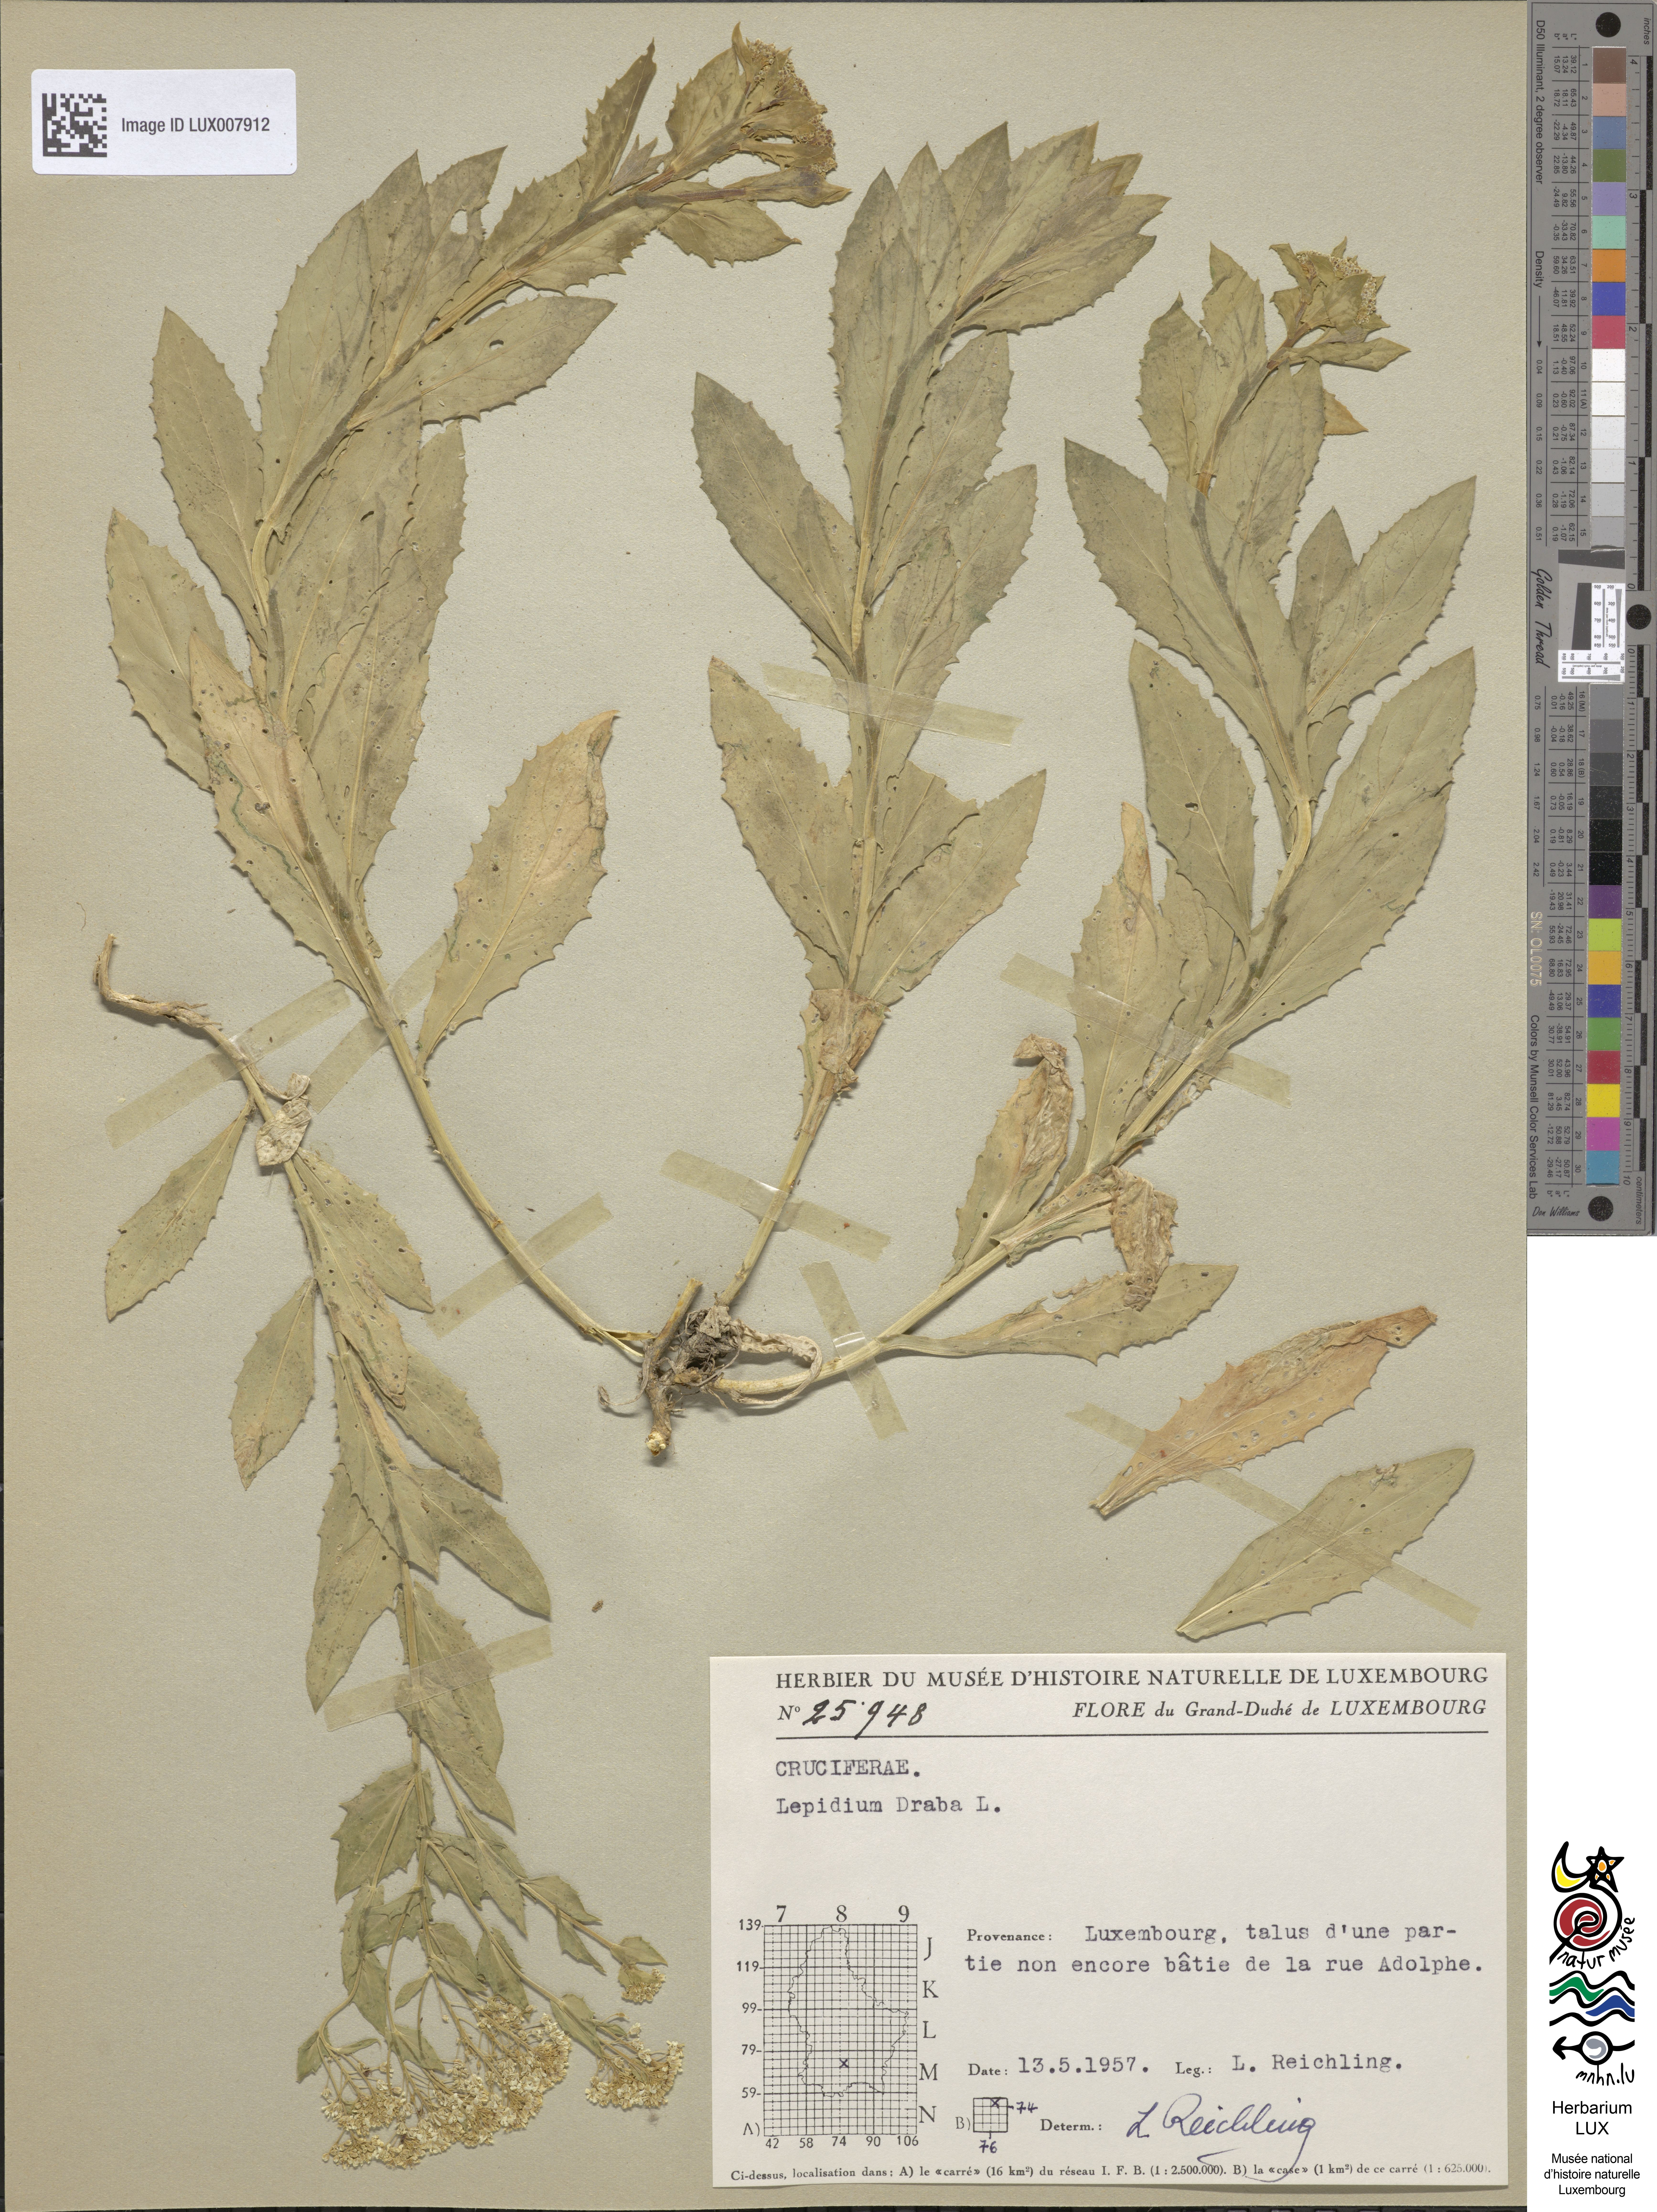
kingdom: Plantae
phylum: Tracheophyta
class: Magnoliopsida
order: Brassicales
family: Brassicaceae
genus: Lepidium
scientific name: Lepidium draba
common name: Hoary cress
